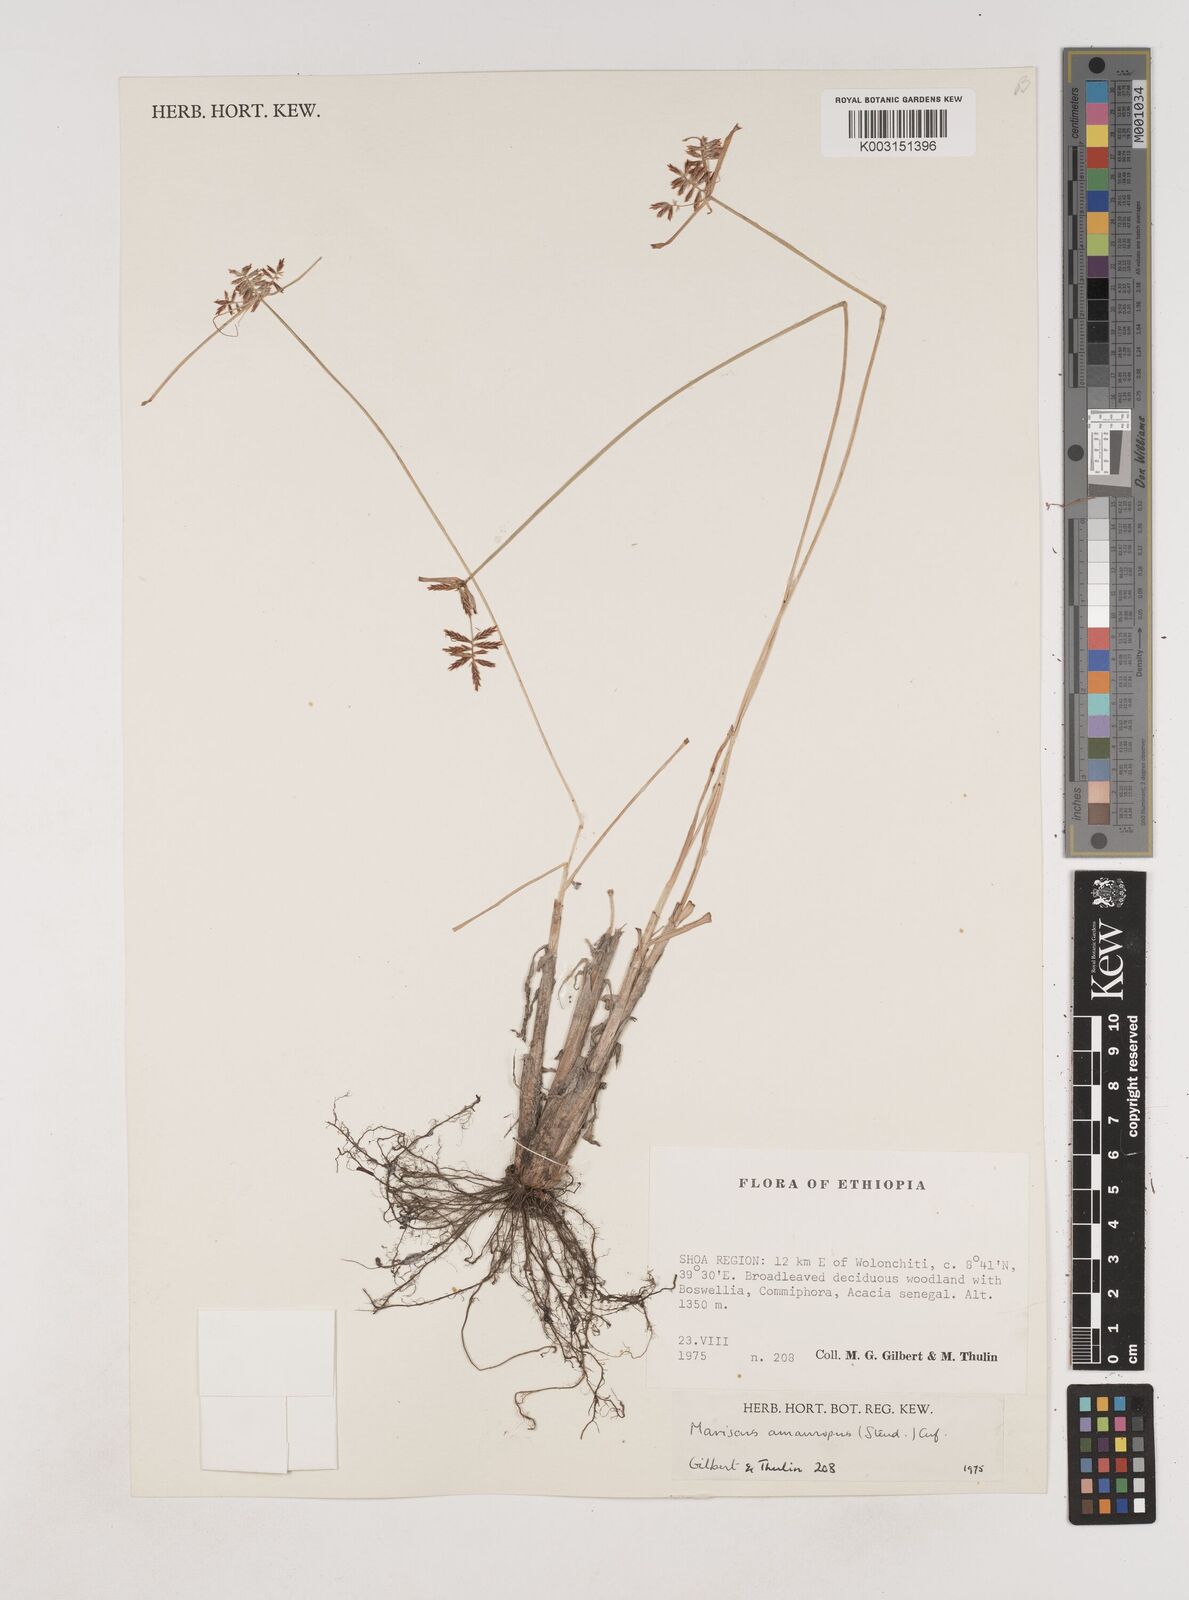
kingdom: Plantae
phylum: Tracheophyta
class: Liliopsida
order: Poales
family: Cyperaceae
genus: Cyperus
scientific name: Cyperus amauropus
